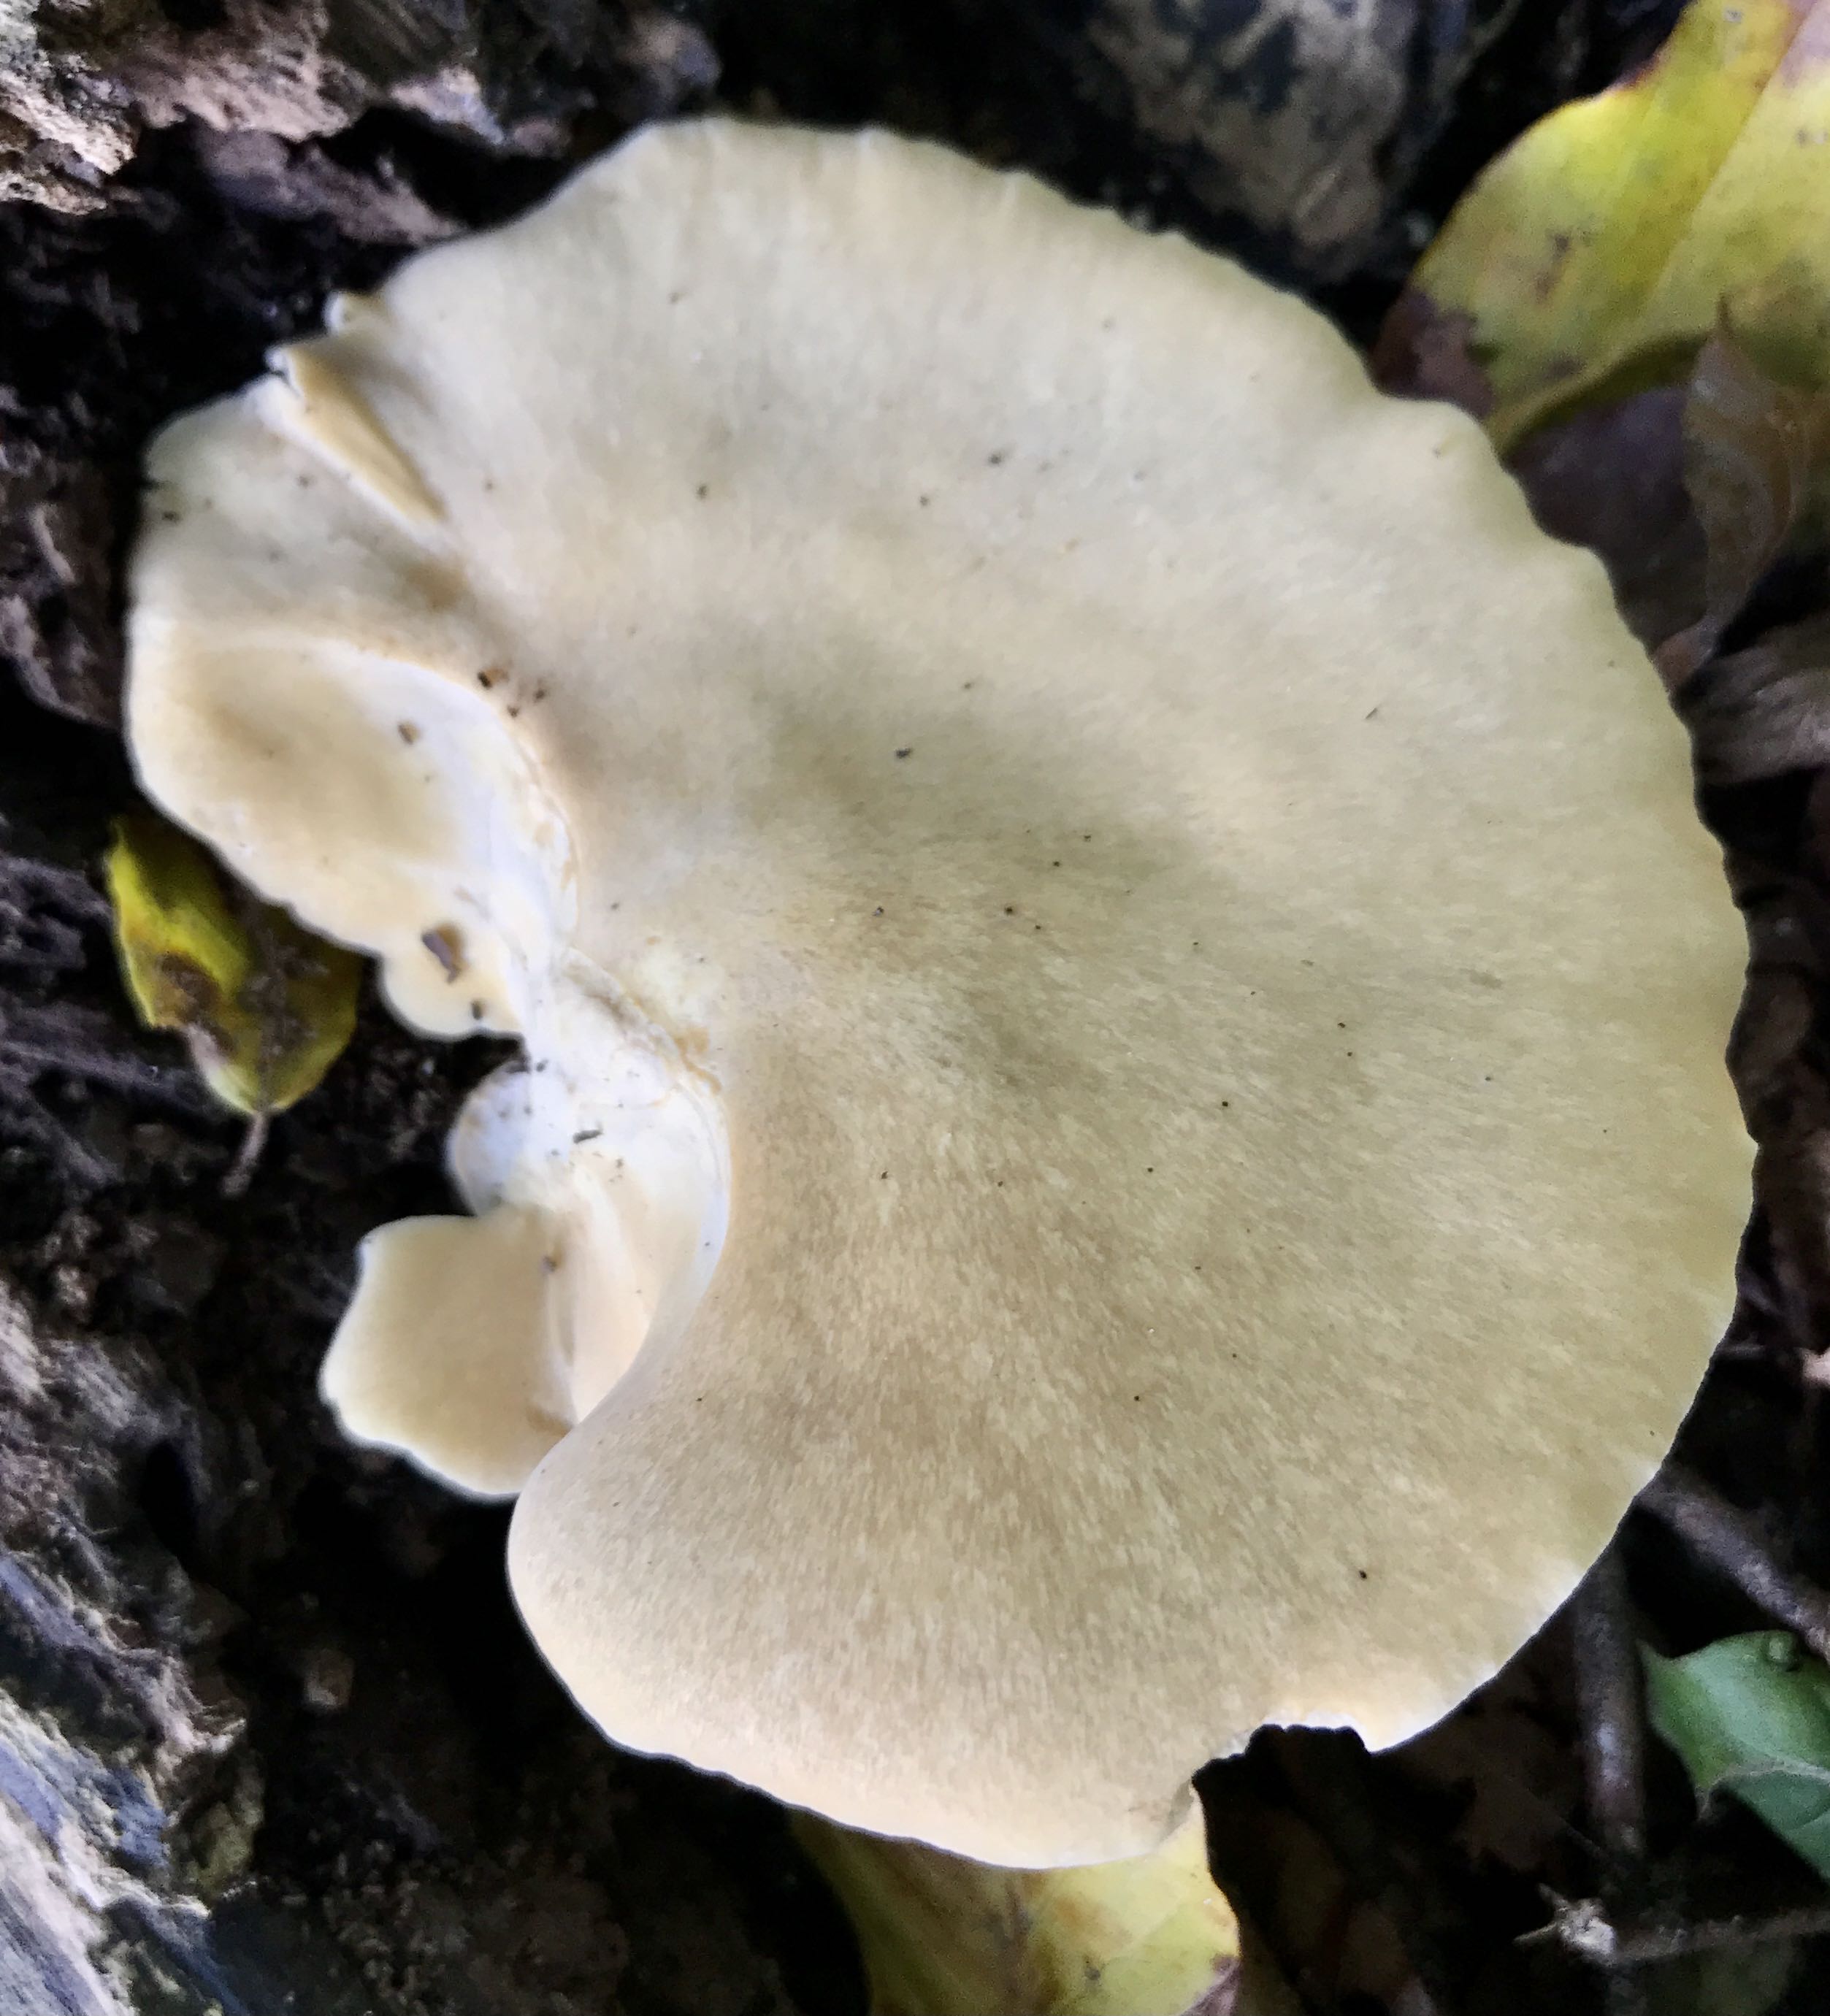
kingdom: Fungi
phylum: Basidiomycota
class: Agaricomycetes
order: Polyporales
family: Polyporaceae
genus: Cerioporus
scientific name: Cerioporus varius
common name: foranderlig stilkporesvamp
